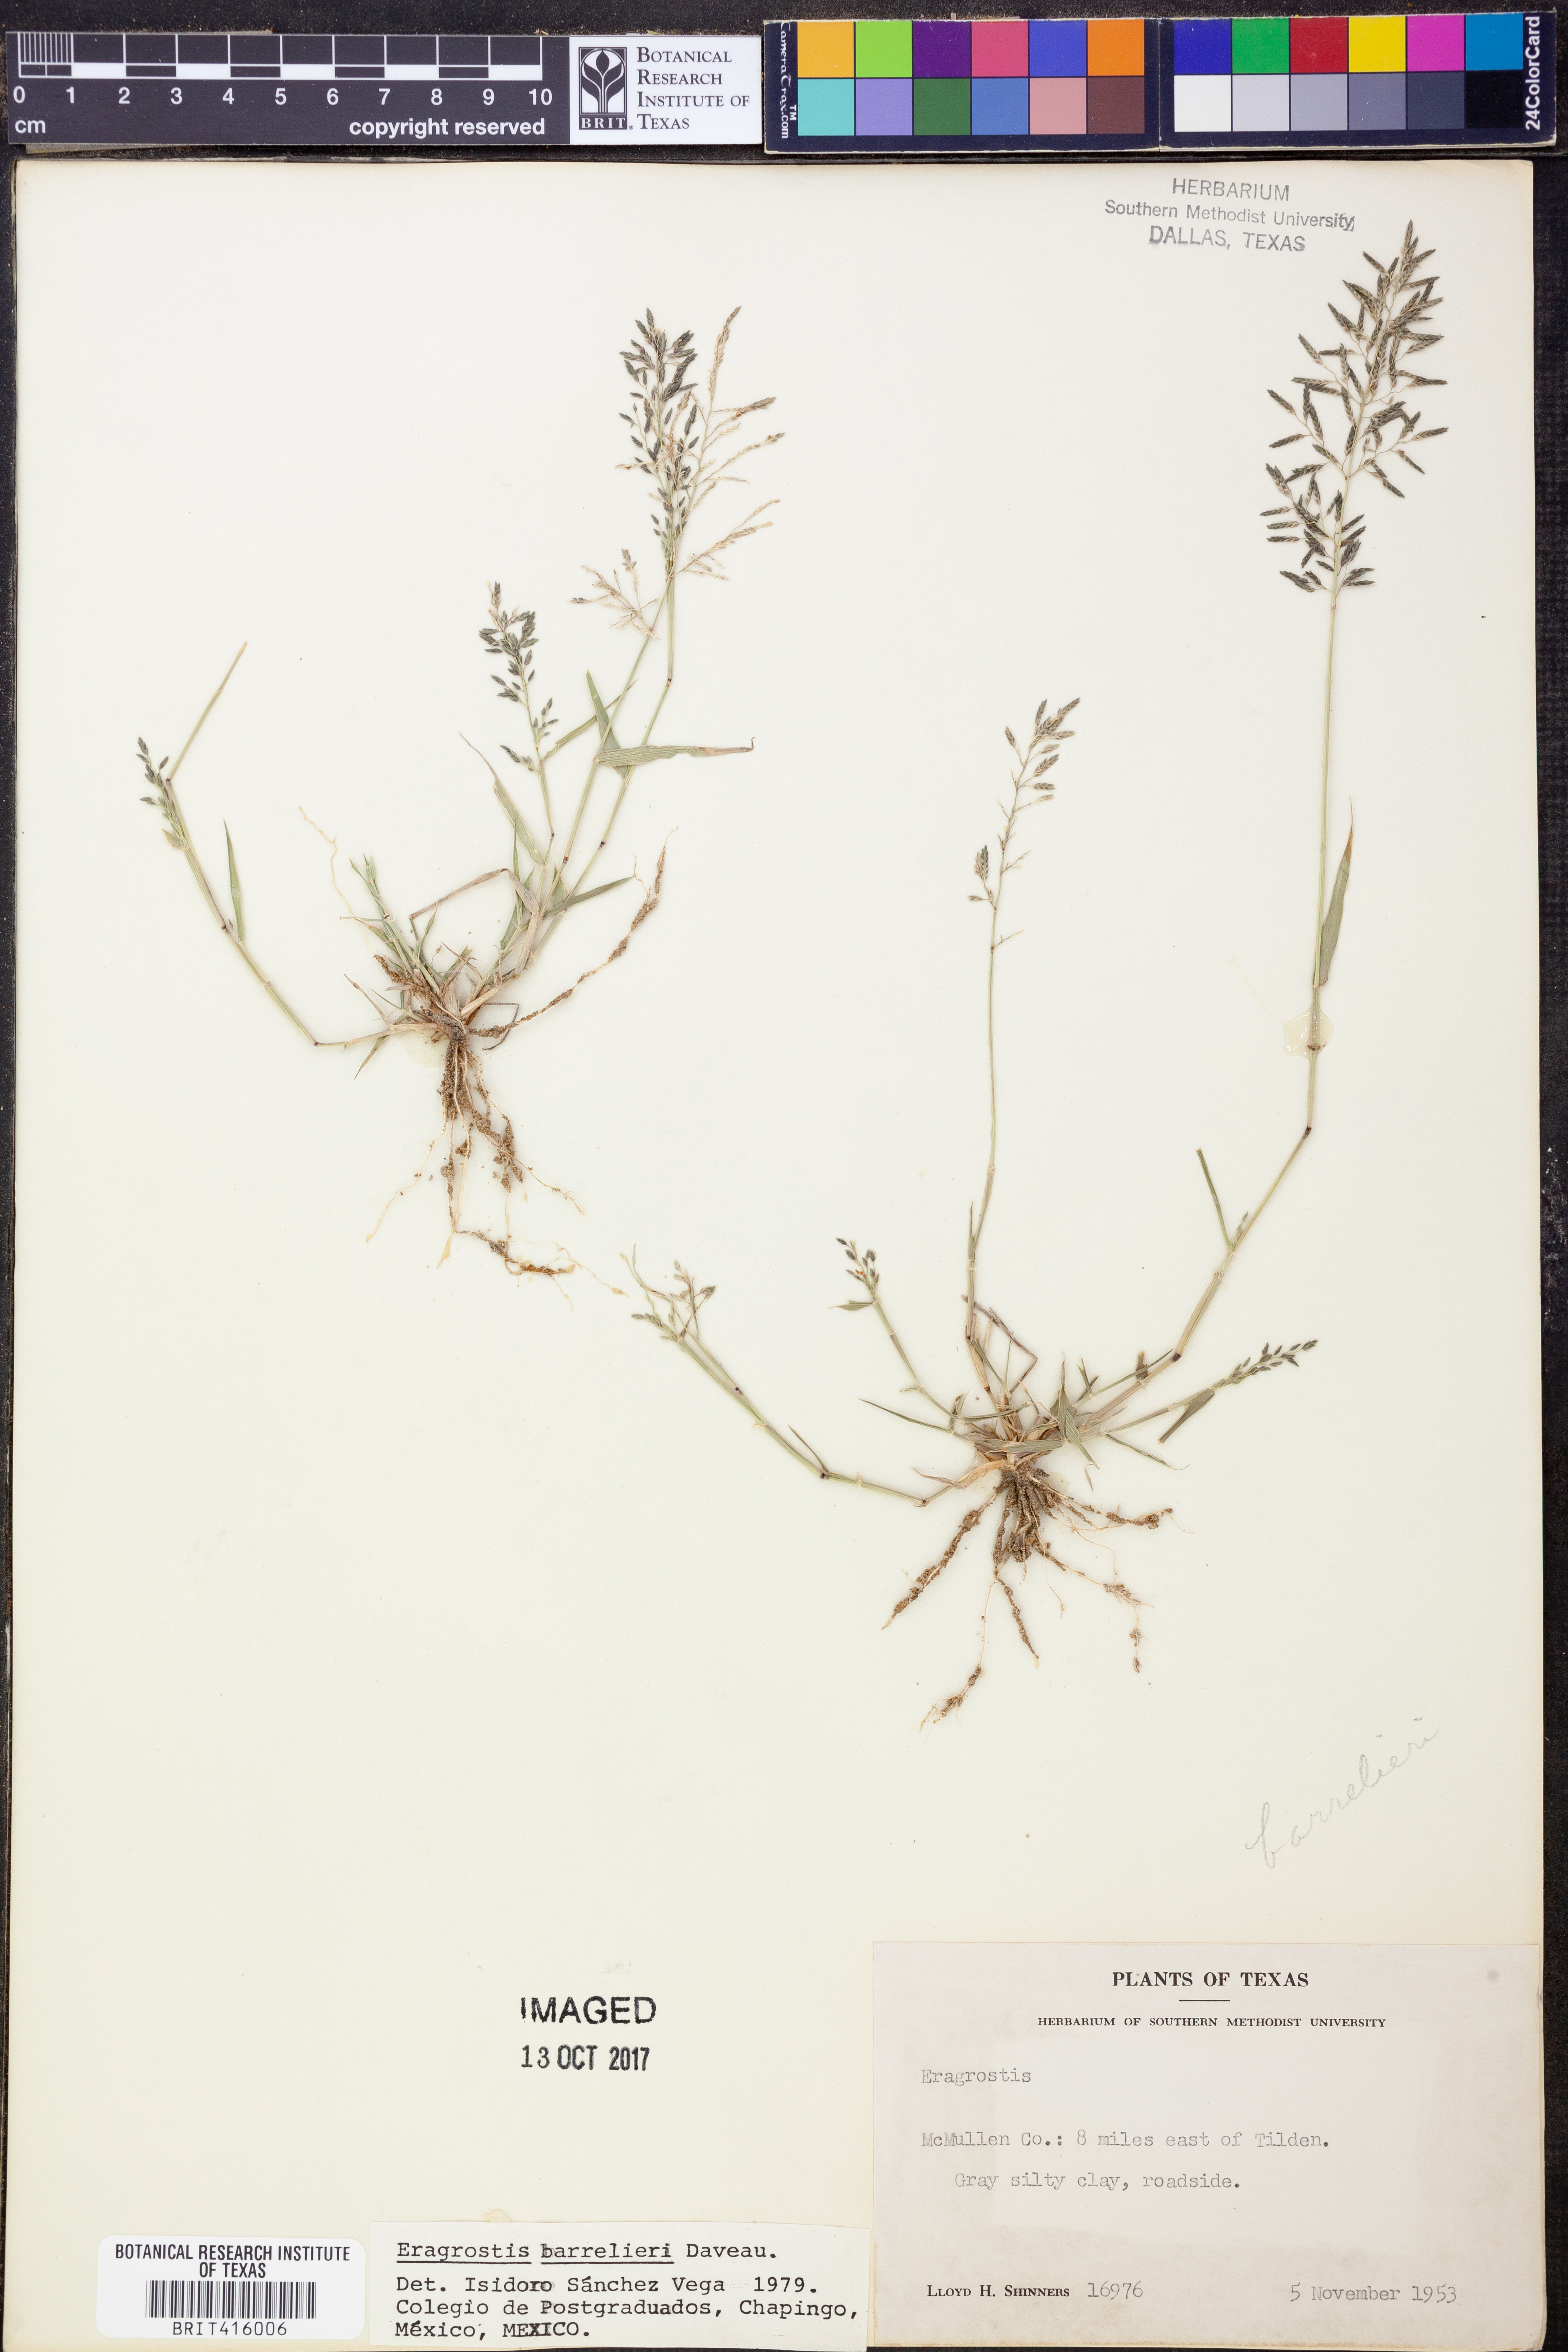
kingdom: Plantae
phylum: Tracheophyta
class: Liliopsida
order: Poales
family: Poaceae
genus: Eragrostis
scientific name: Eragrostis barrelieri
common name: Mediterranean lovegrass
